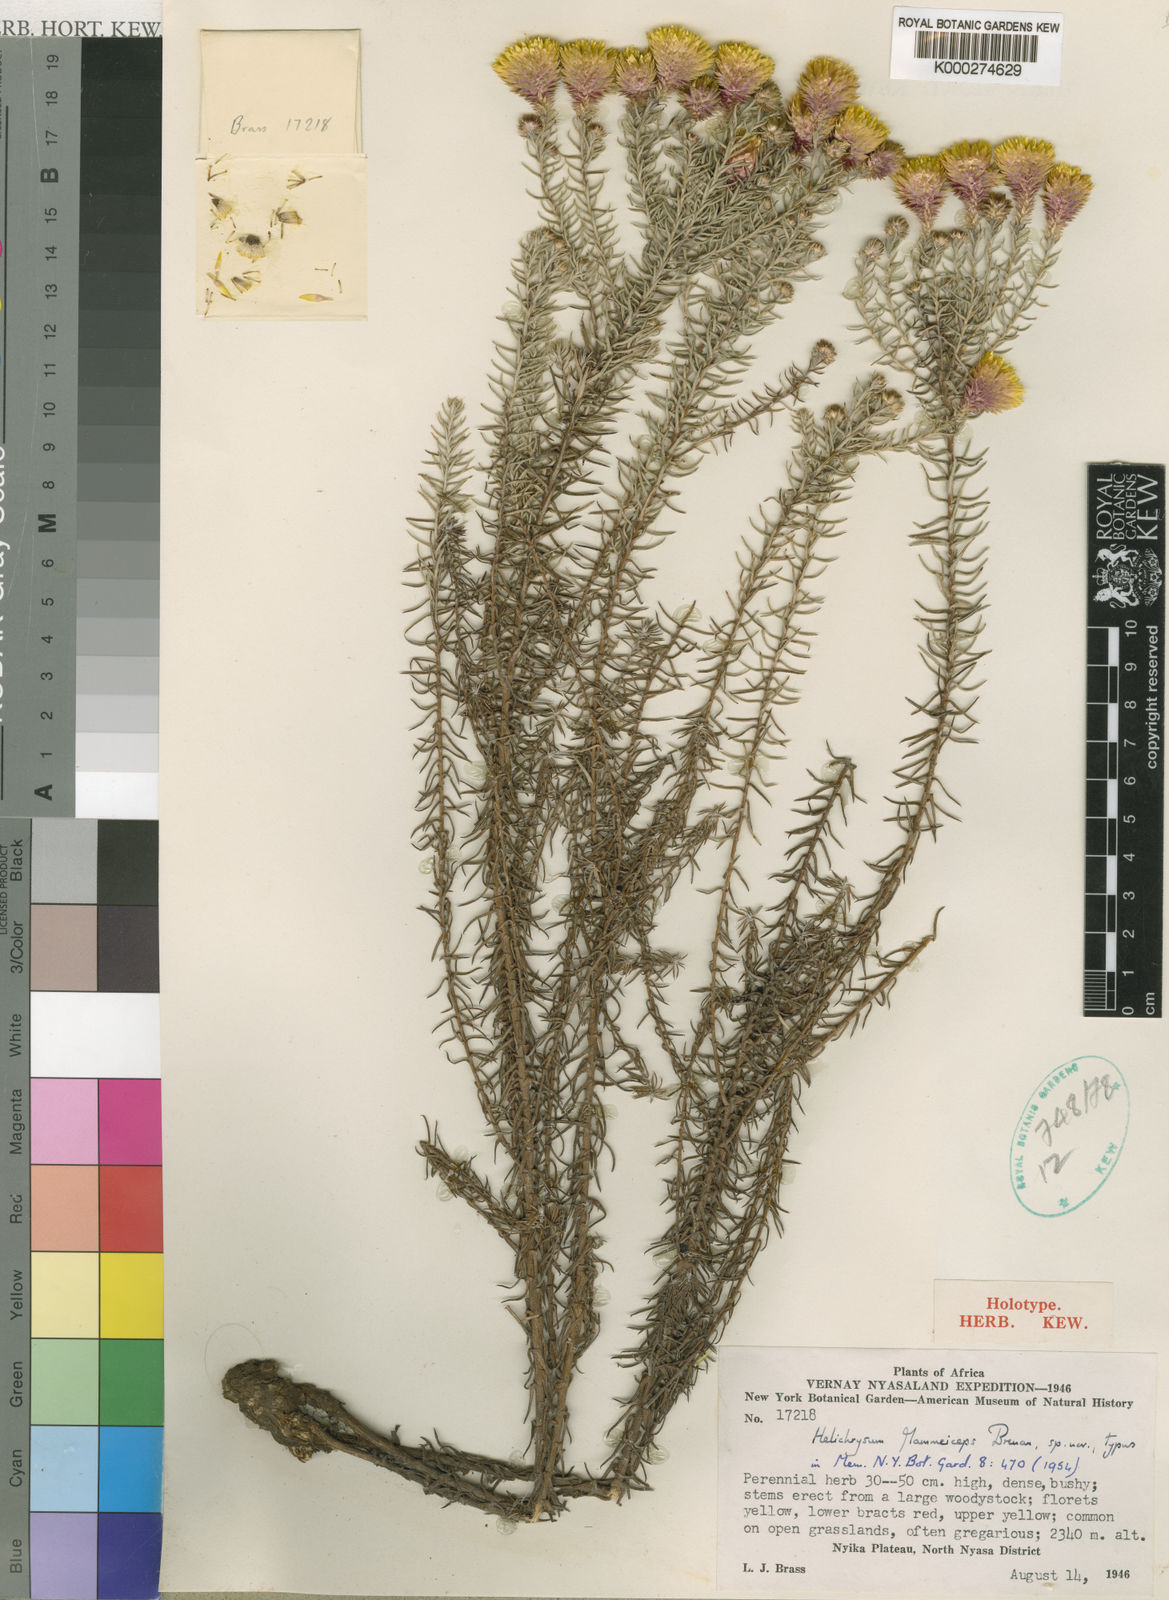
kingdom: Plantae
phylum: Tracheophyta
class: Magnoliopsida
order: Asterales
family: Asteraceae
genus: Helichrysum
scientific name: Helichrysum patulifolium
